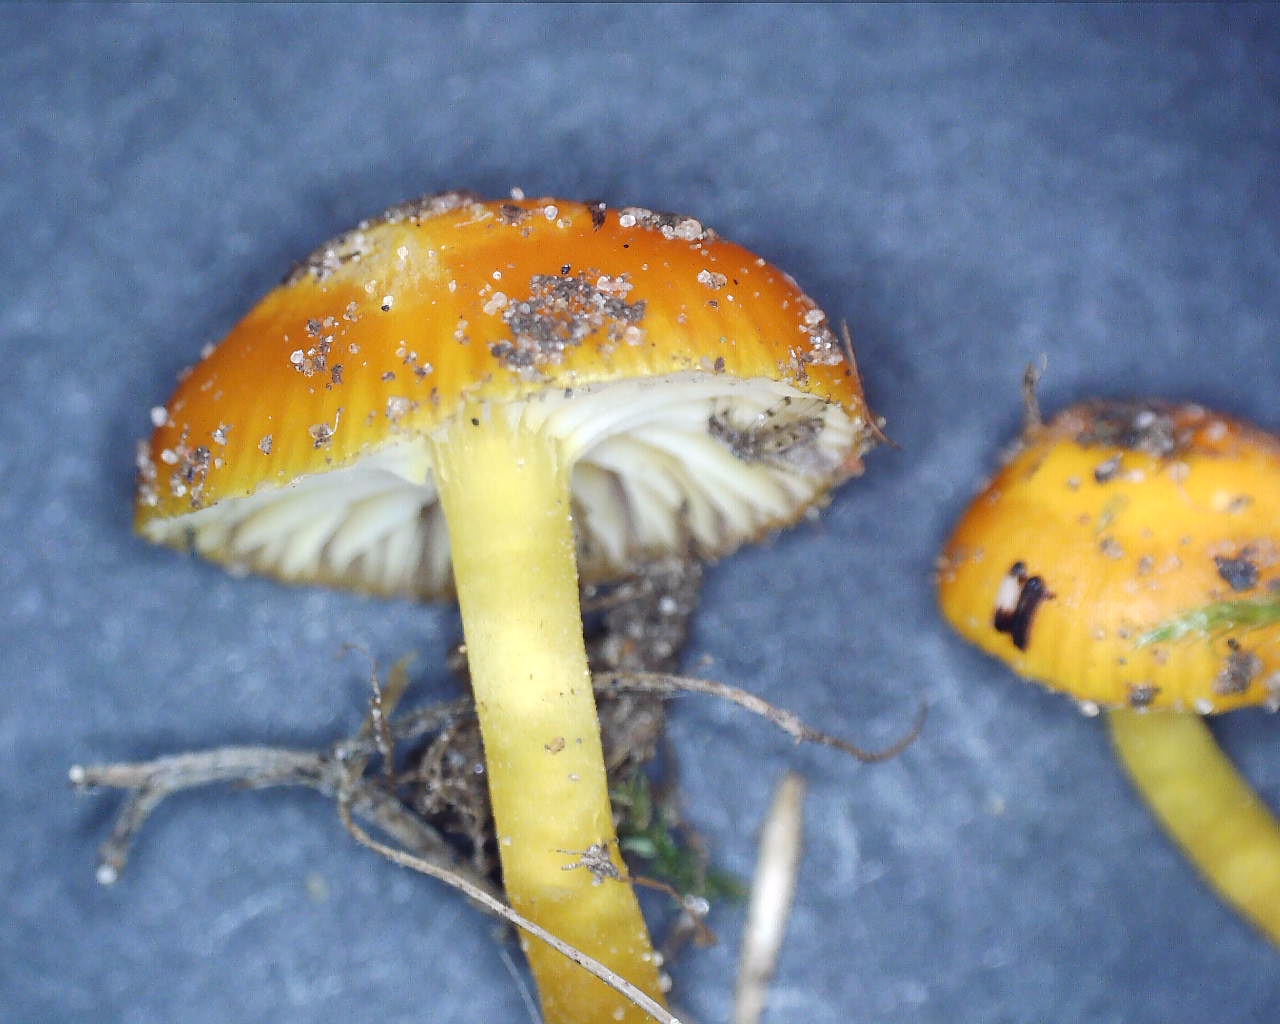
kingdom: Fungi
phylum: Basidiomycota
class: Agaricomycetes
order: Agaricales
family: Hygrophoraceae
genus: Hygrocybe
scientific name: Hygrocybe ceracea
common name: voksgul vokshat
